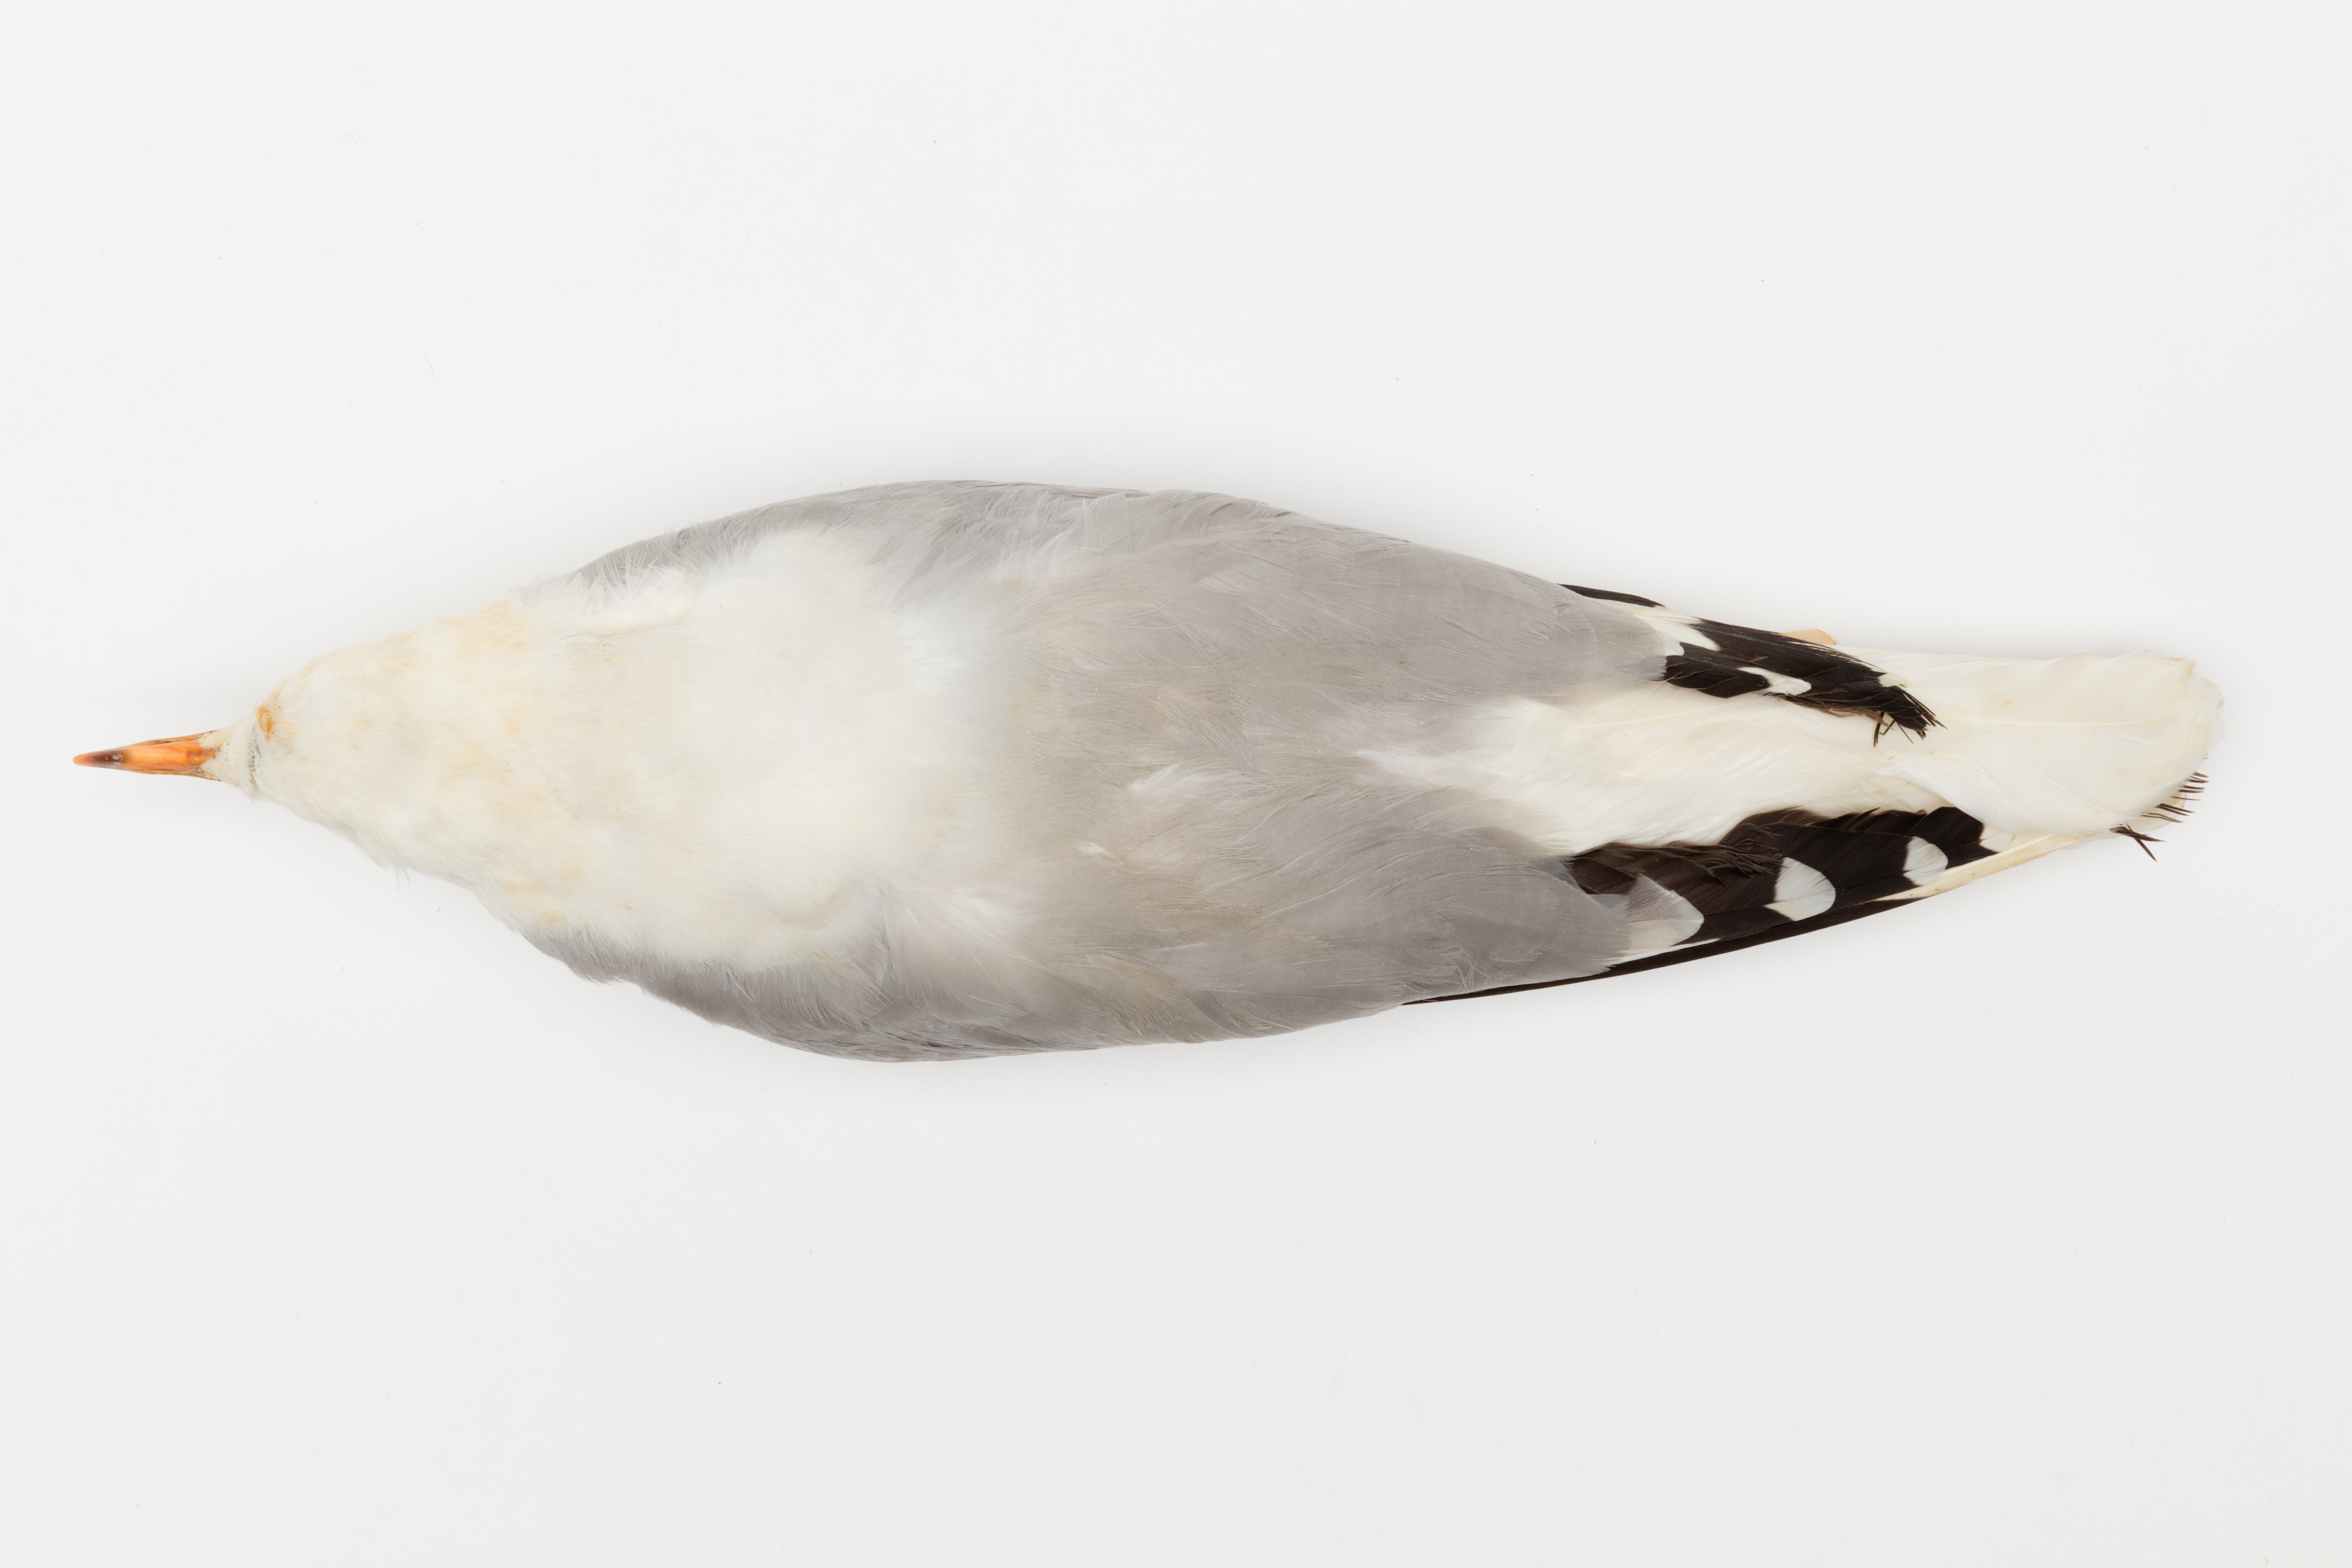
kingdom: Animalia
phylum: Chordata
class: Aves
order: Charadriiformes
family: Laridae
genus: Chroicocephalus
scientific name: Chroicocephalus novaehollandiae
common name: Silver gull
